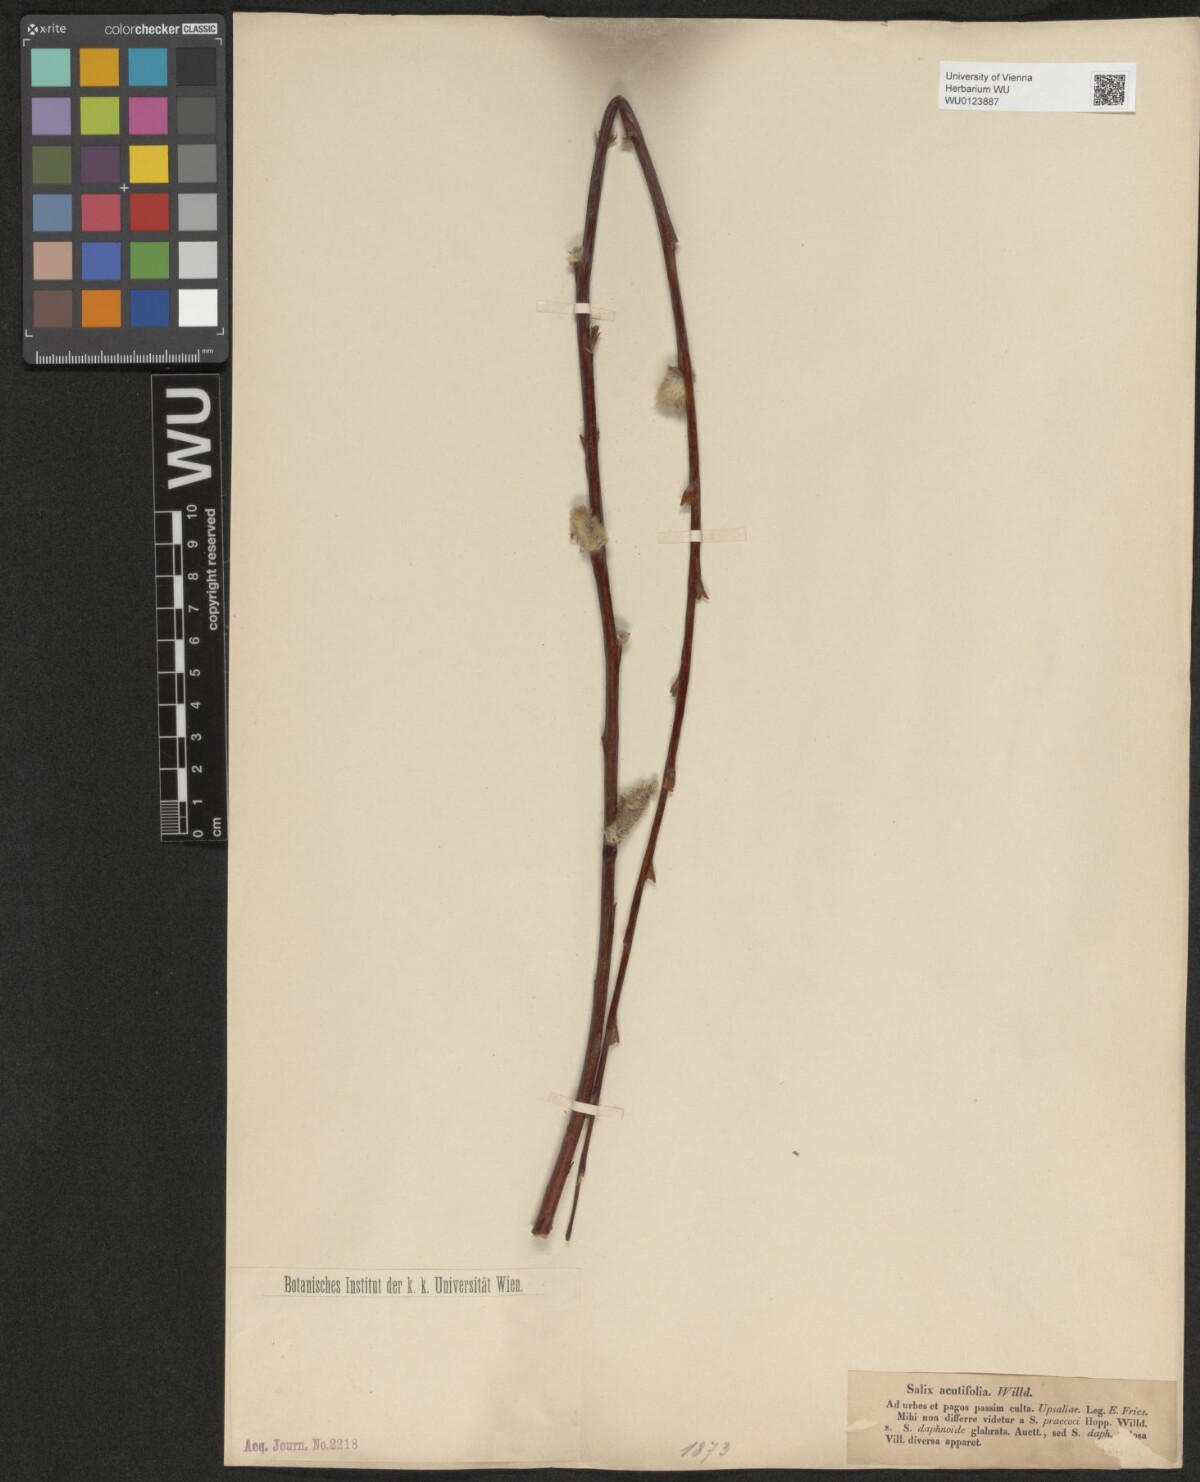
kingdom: Plantae
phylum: Tracheophyta
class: Magnoliopsida
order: Malpighiales
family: Salicaceae
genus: Salix
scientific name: Salix acutifolia
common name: Siberian violet-willow
